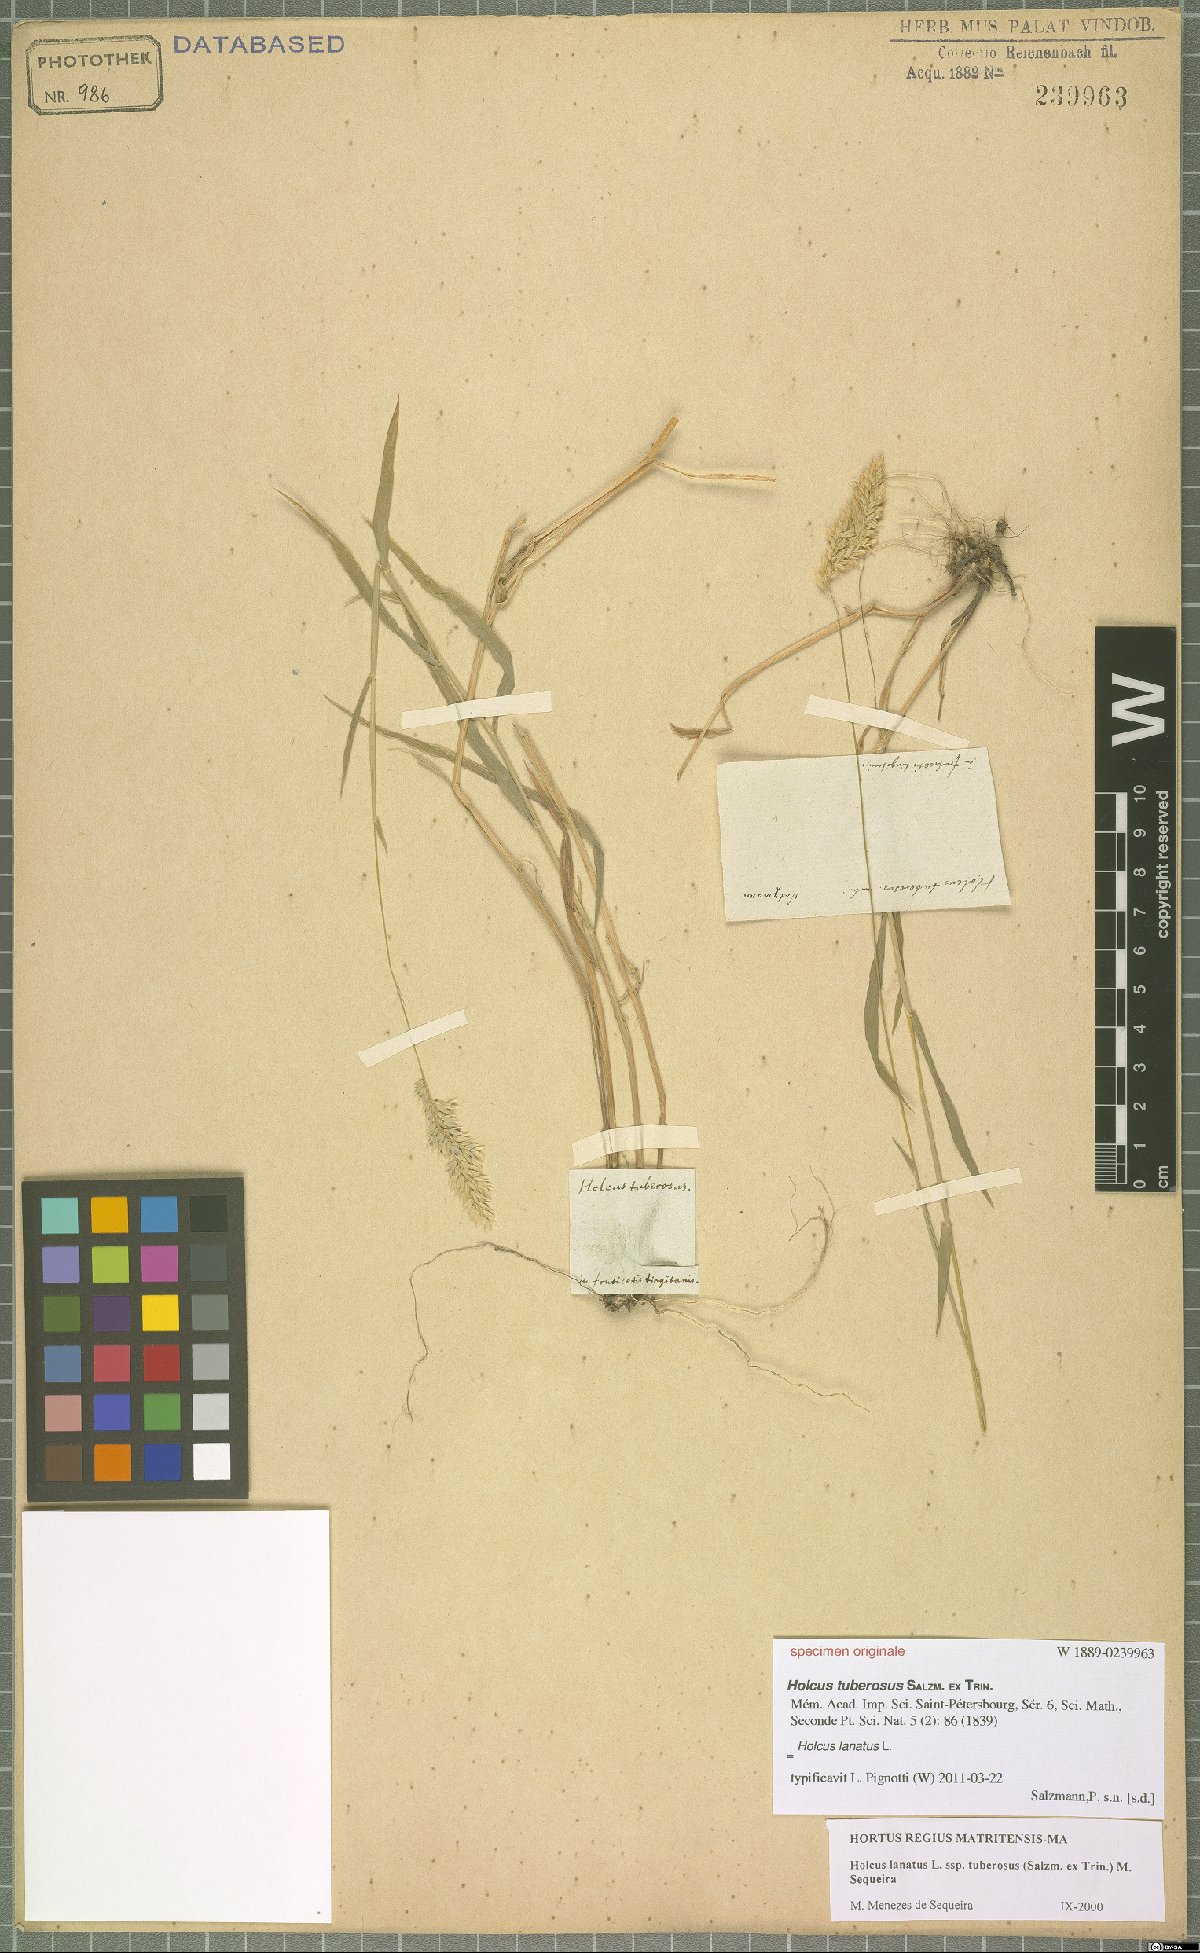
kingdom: Plantae
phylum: Tracheophyta
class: Liliopsida
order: Poales
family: Poaceae
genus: Holcus
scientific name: Holcus lanatus
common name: Yorkshire-fog
